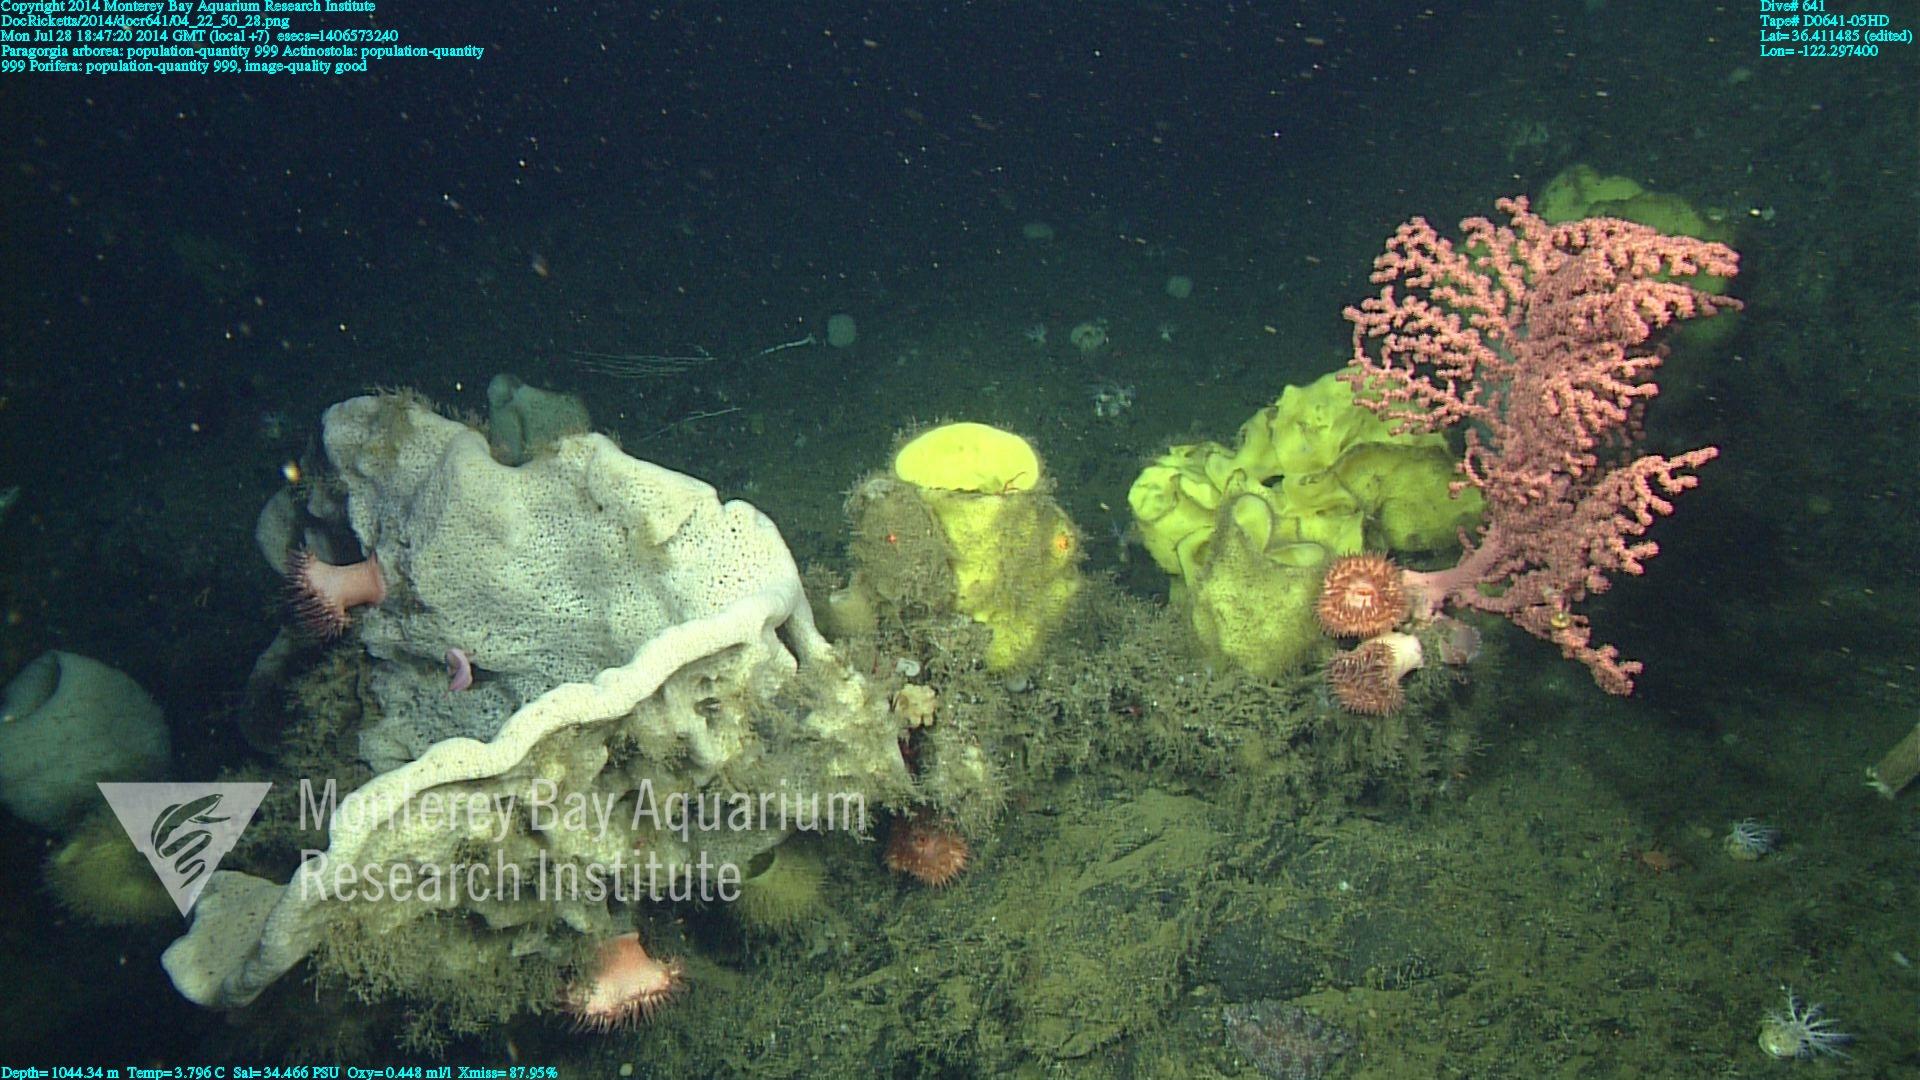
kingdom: Animalia
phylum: Cnidaria
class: Anthozoa
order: Scleralcyonacea
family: Coralliidae
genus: Paragorgia
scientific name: Paragorgia arborea
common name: Bubble gum coral
